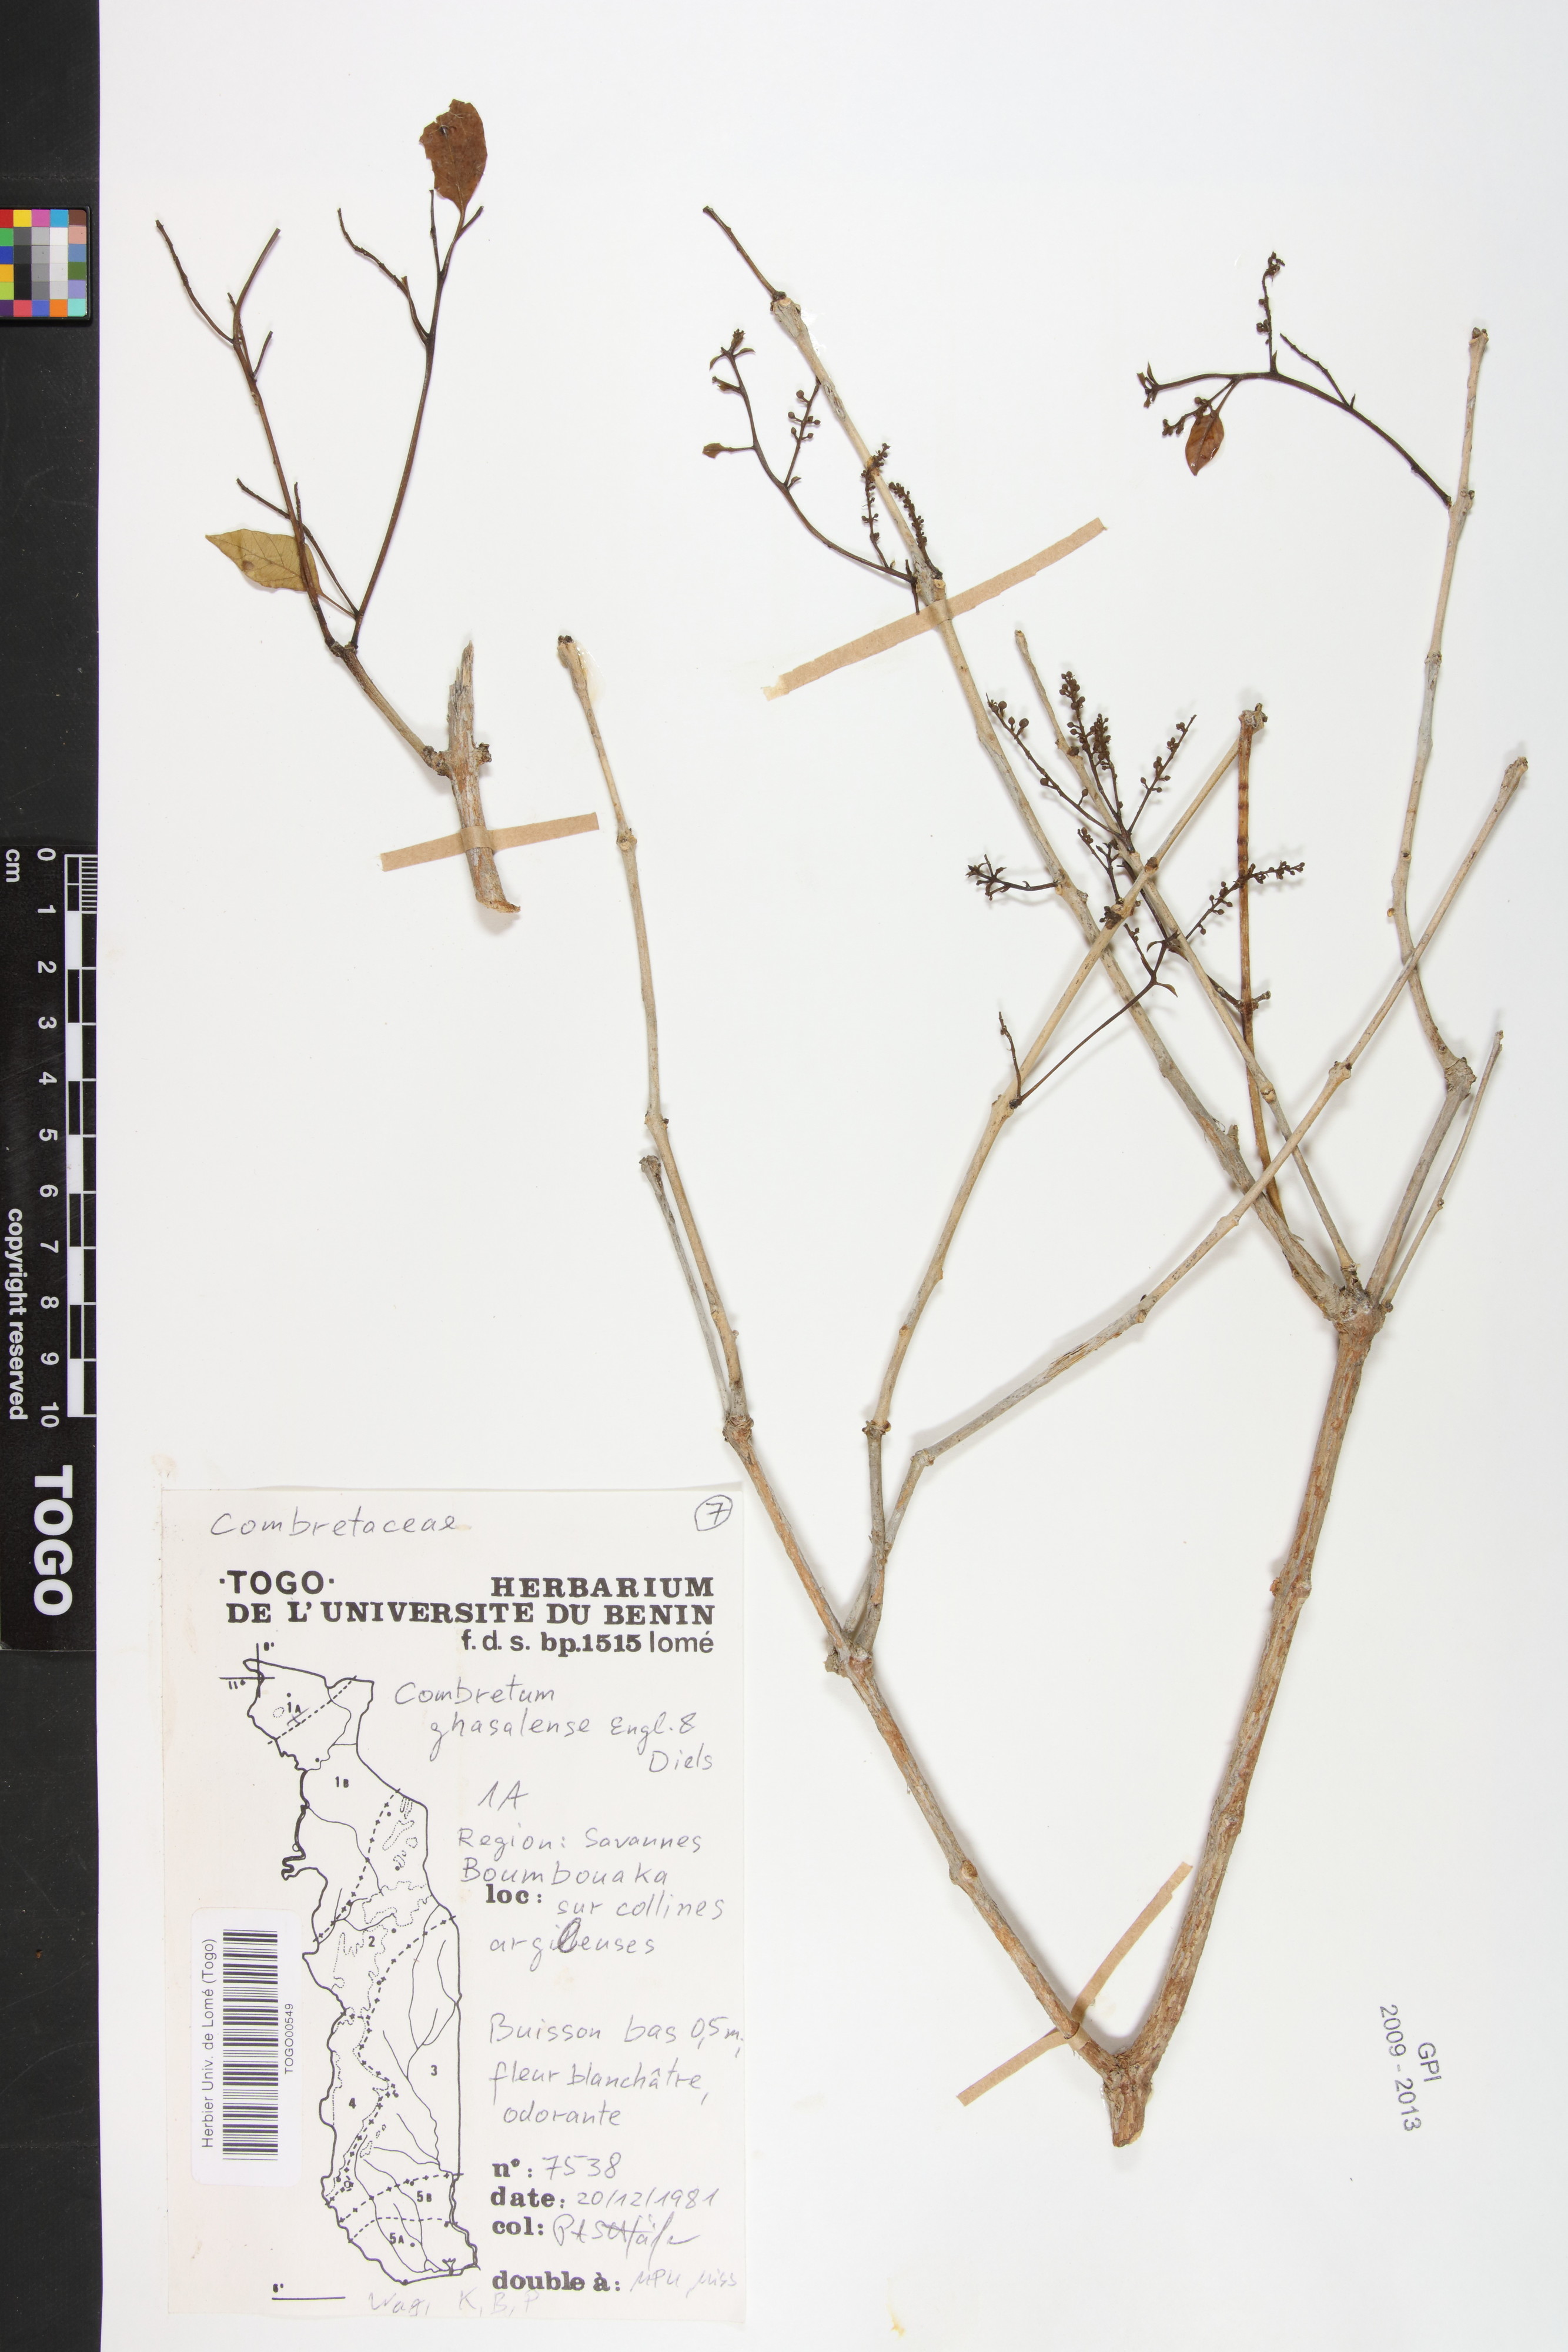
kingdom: Plantae
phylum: Tracheophyta
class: Magnoliopsida
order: Myrtales
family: Combretaceae
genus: Combretum
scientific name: Combretum adenogonium
